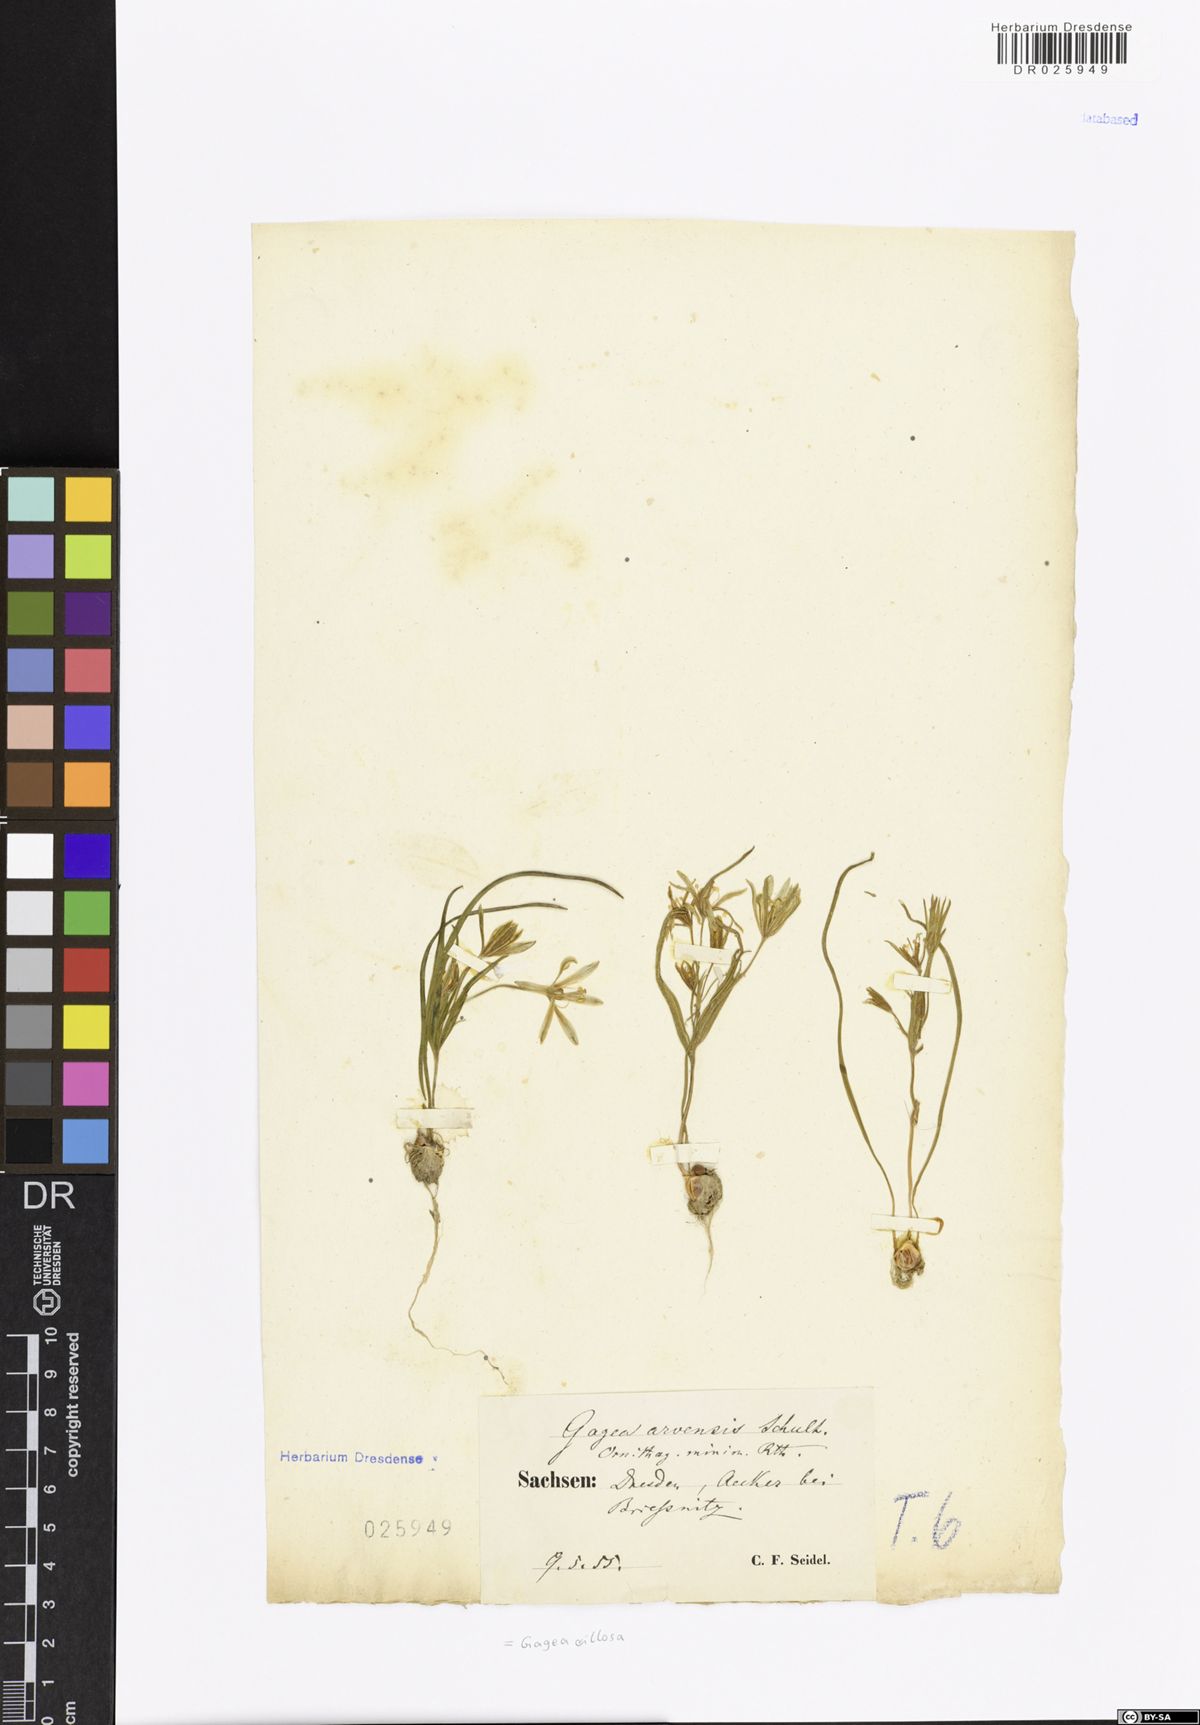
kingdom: Plantae
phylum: Tracheophyta
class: Liliopsida
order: Liliales
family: Liliaceae
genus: Gagea
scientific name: Gagea villosa
